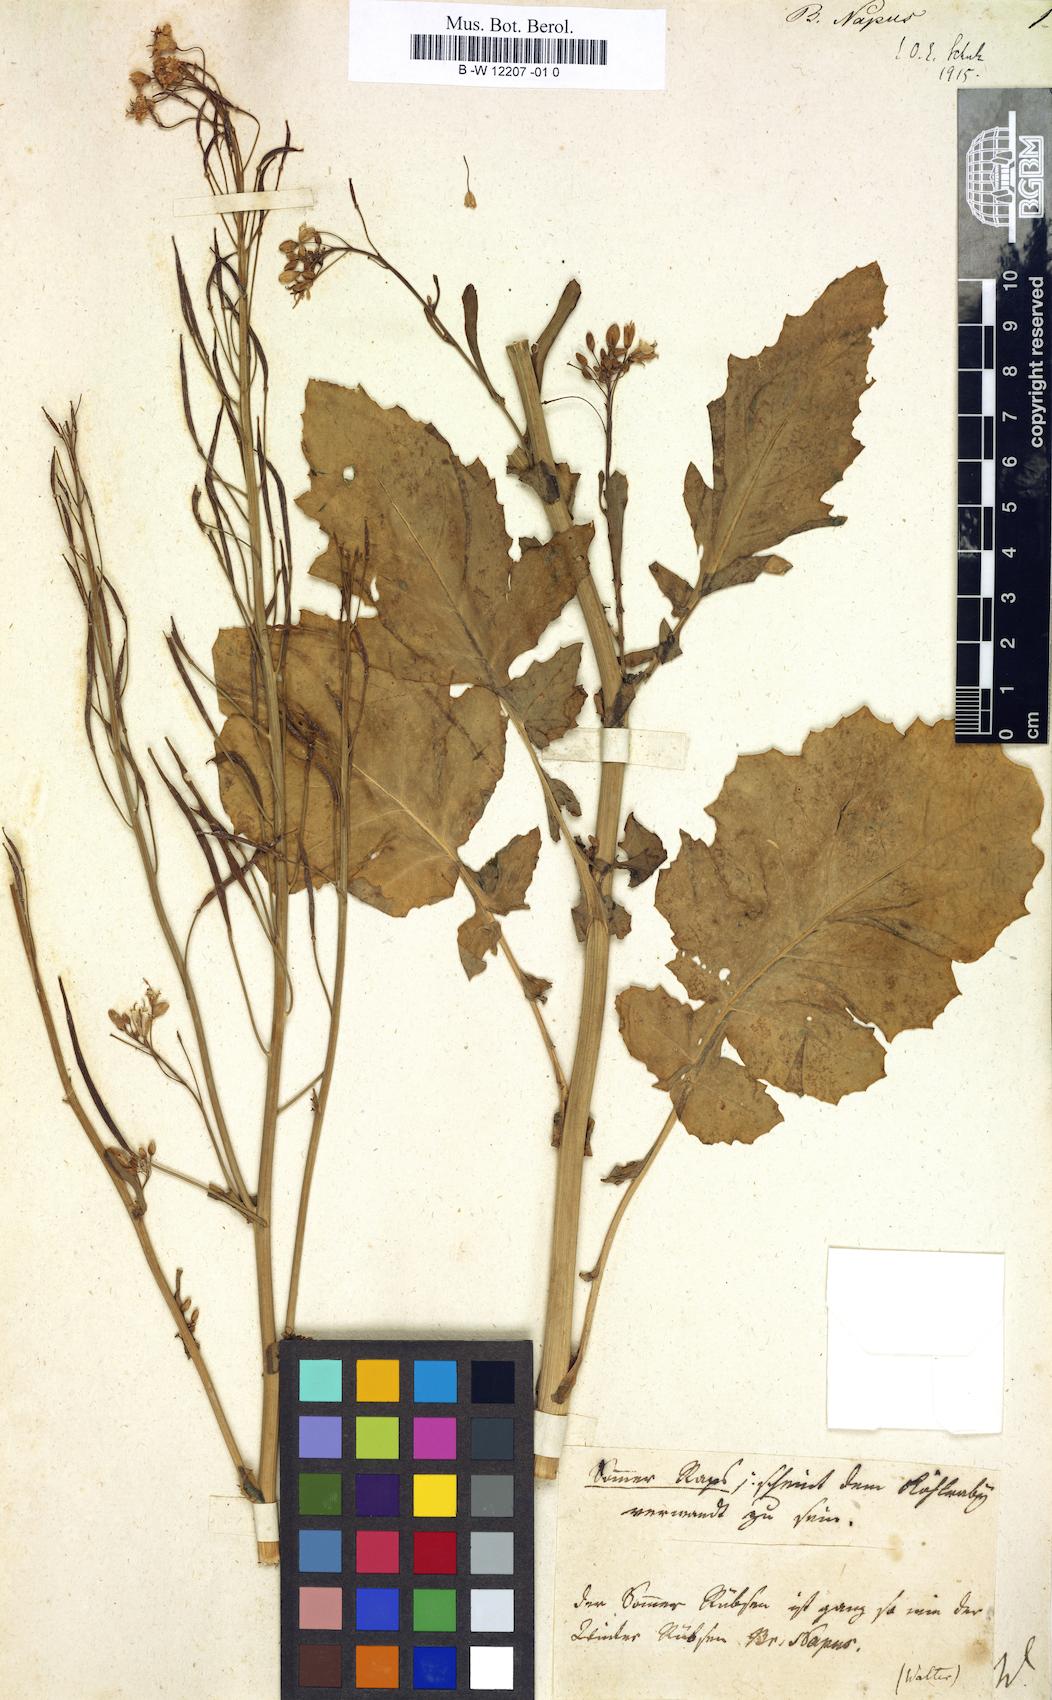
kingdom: Plantae
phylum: Tracheophyta
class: Magnoliopsida
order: Brassicales
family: Brassicaceae
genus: Brassica
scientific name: Brassica napus
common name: Rape
